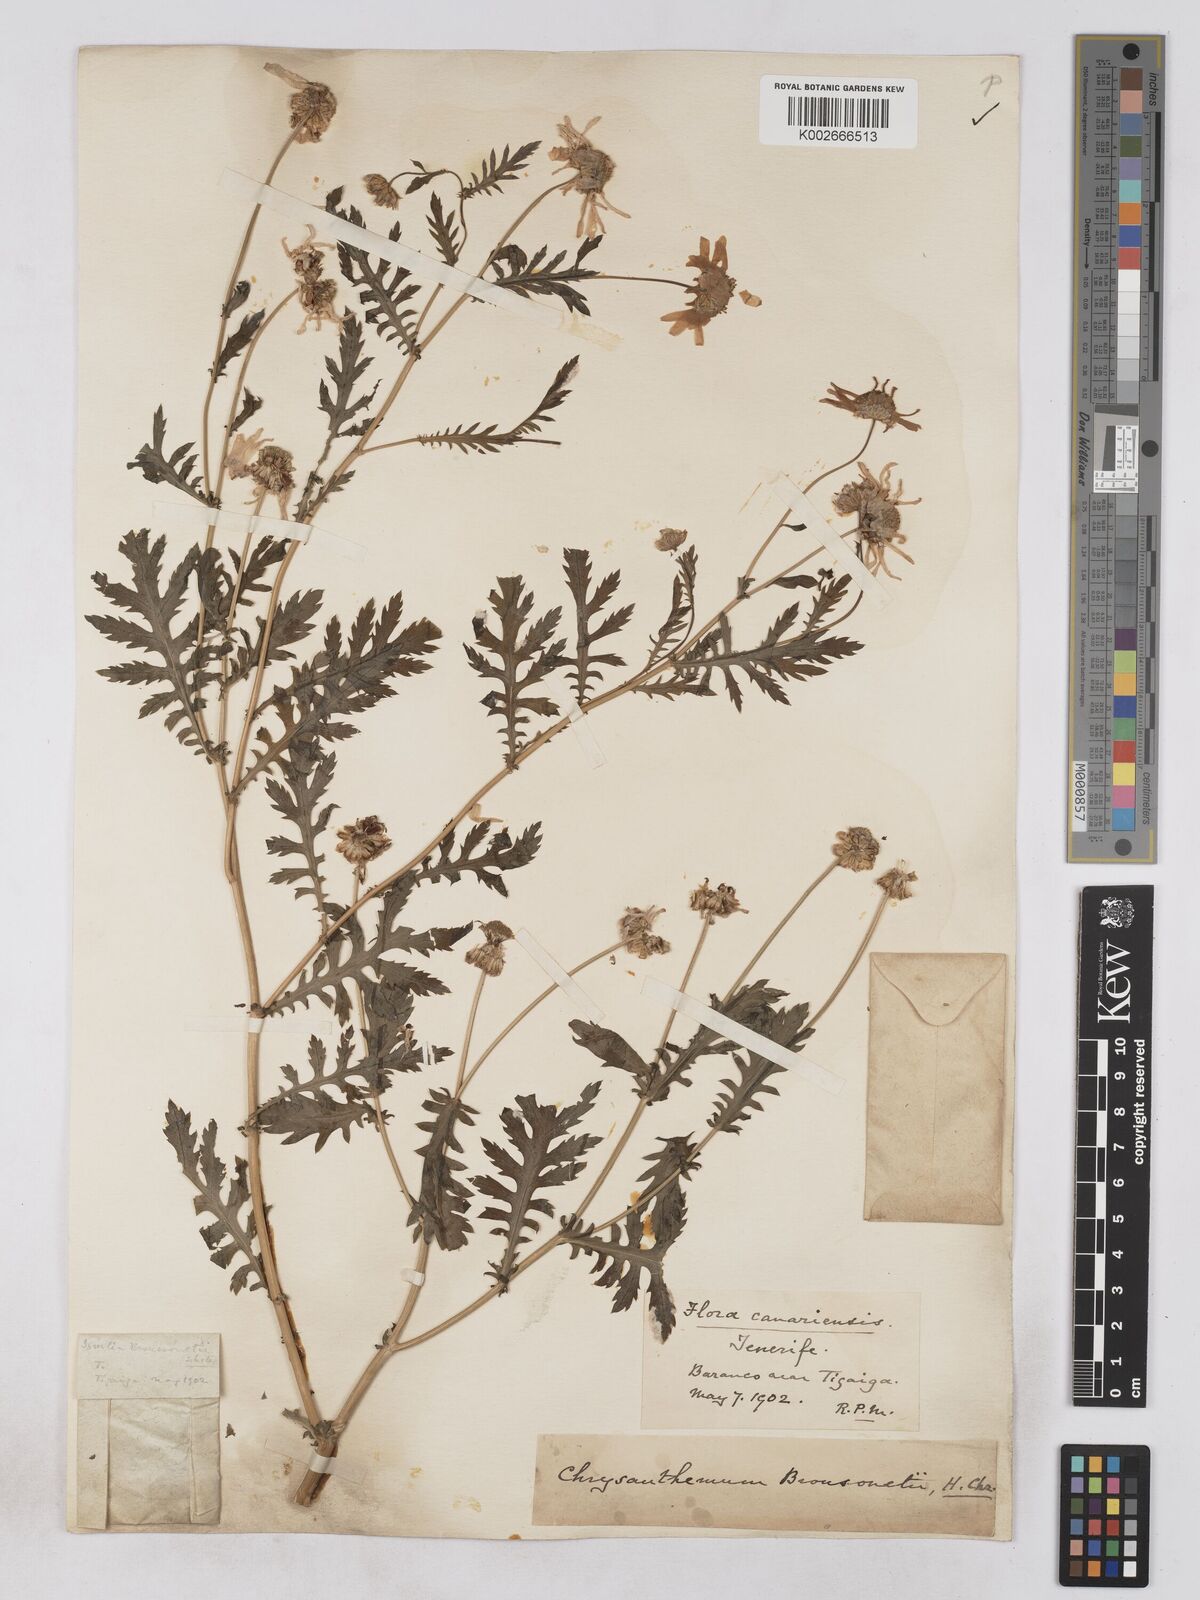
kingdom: Plantae
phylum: Tracheophyta
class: Magnoliopsida
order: Asterales
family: Asteraceae
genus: Argyranthemum
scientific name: Argyranthemum adauctum
